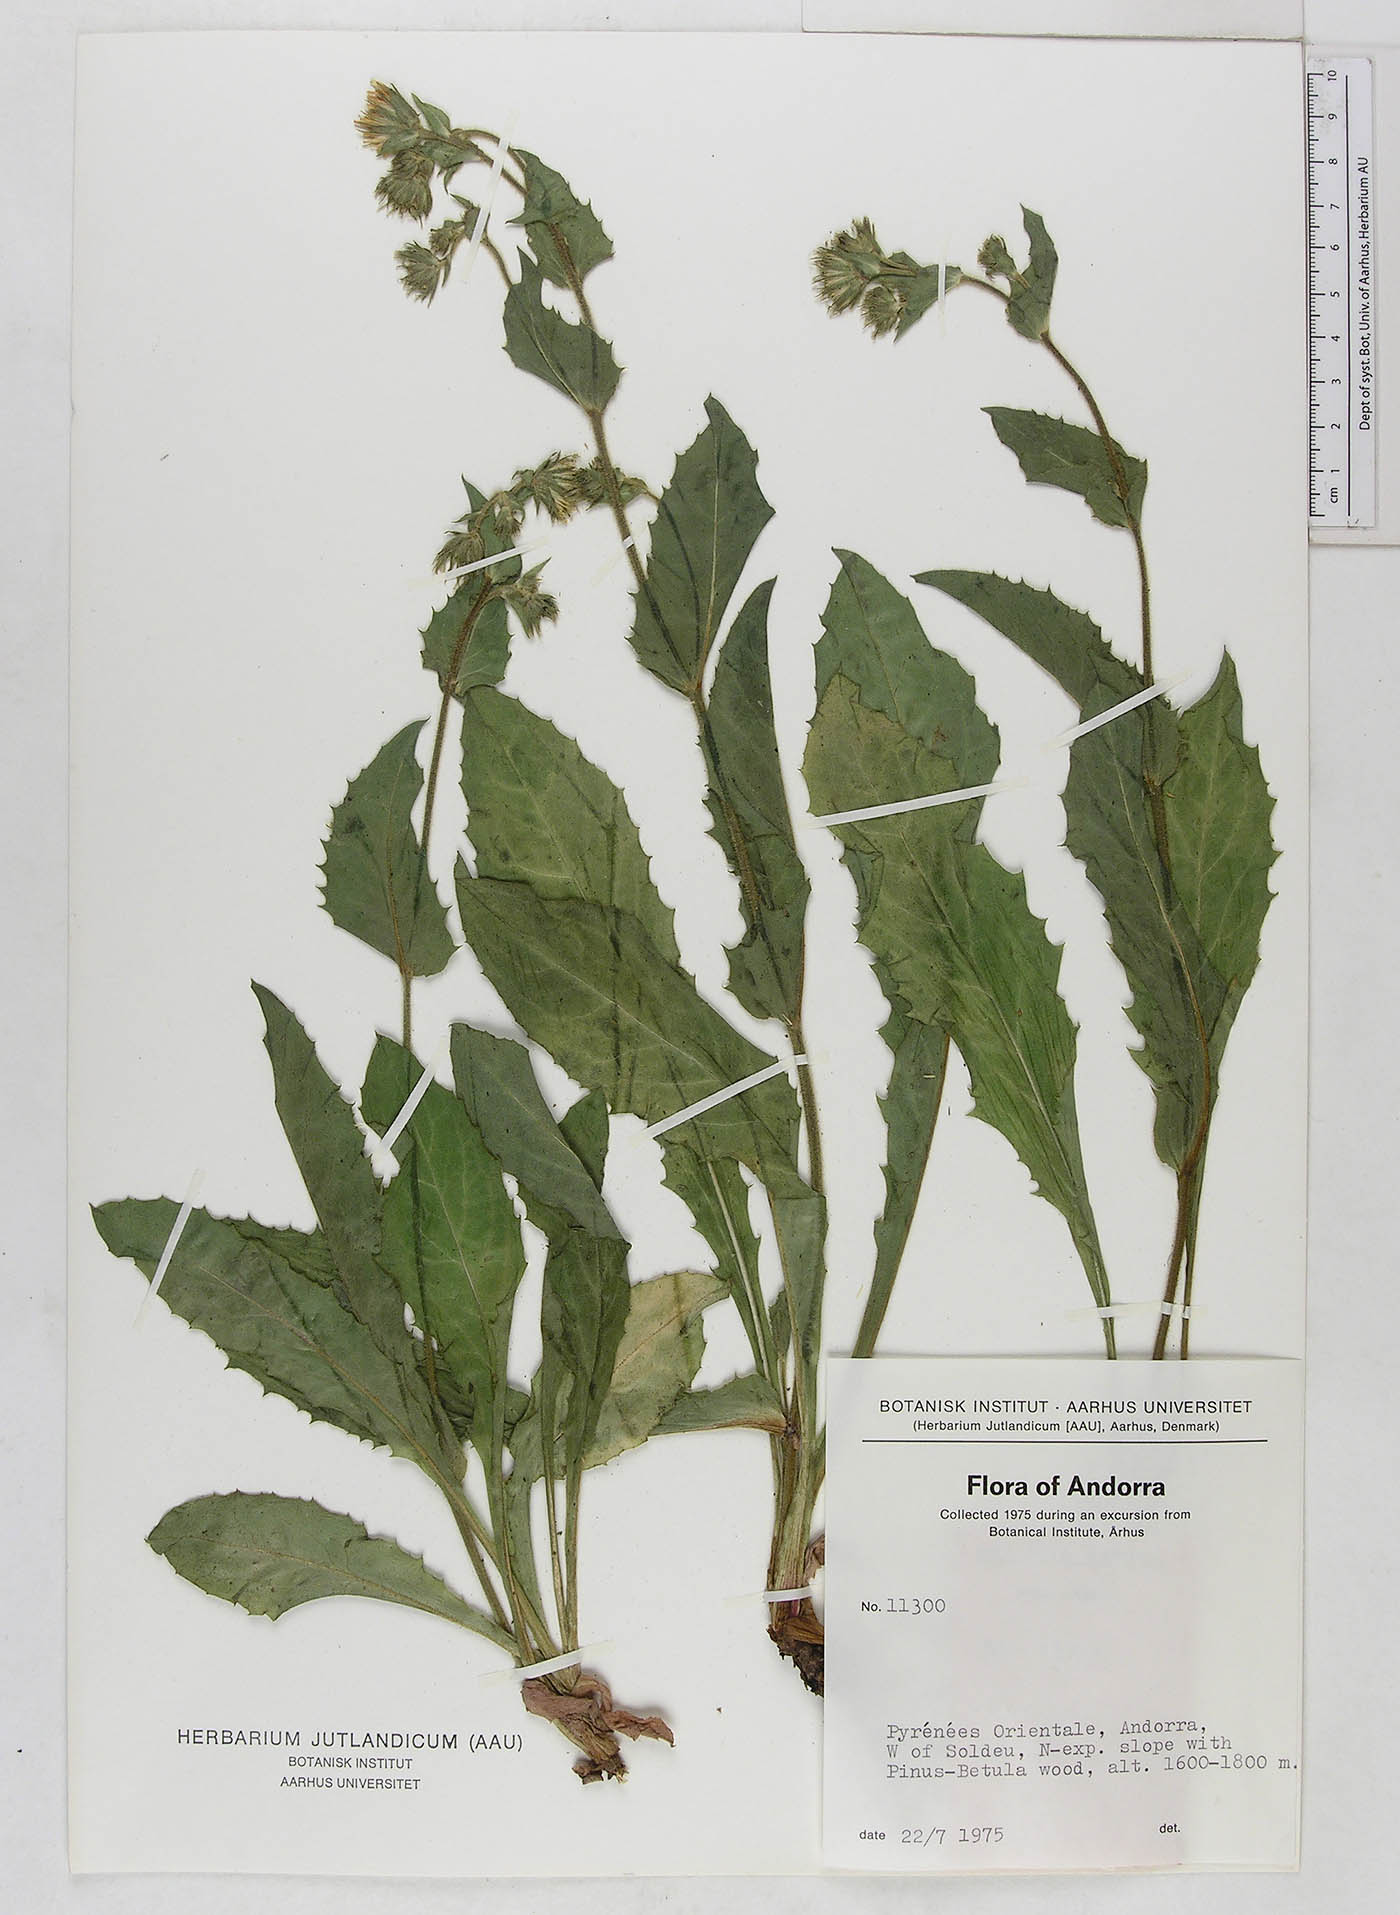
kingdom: Plantae
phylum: Tracheophyta
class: Magnoliopsida
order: Asterales
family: Asteraceae
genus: Crepis
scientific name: Crepis
